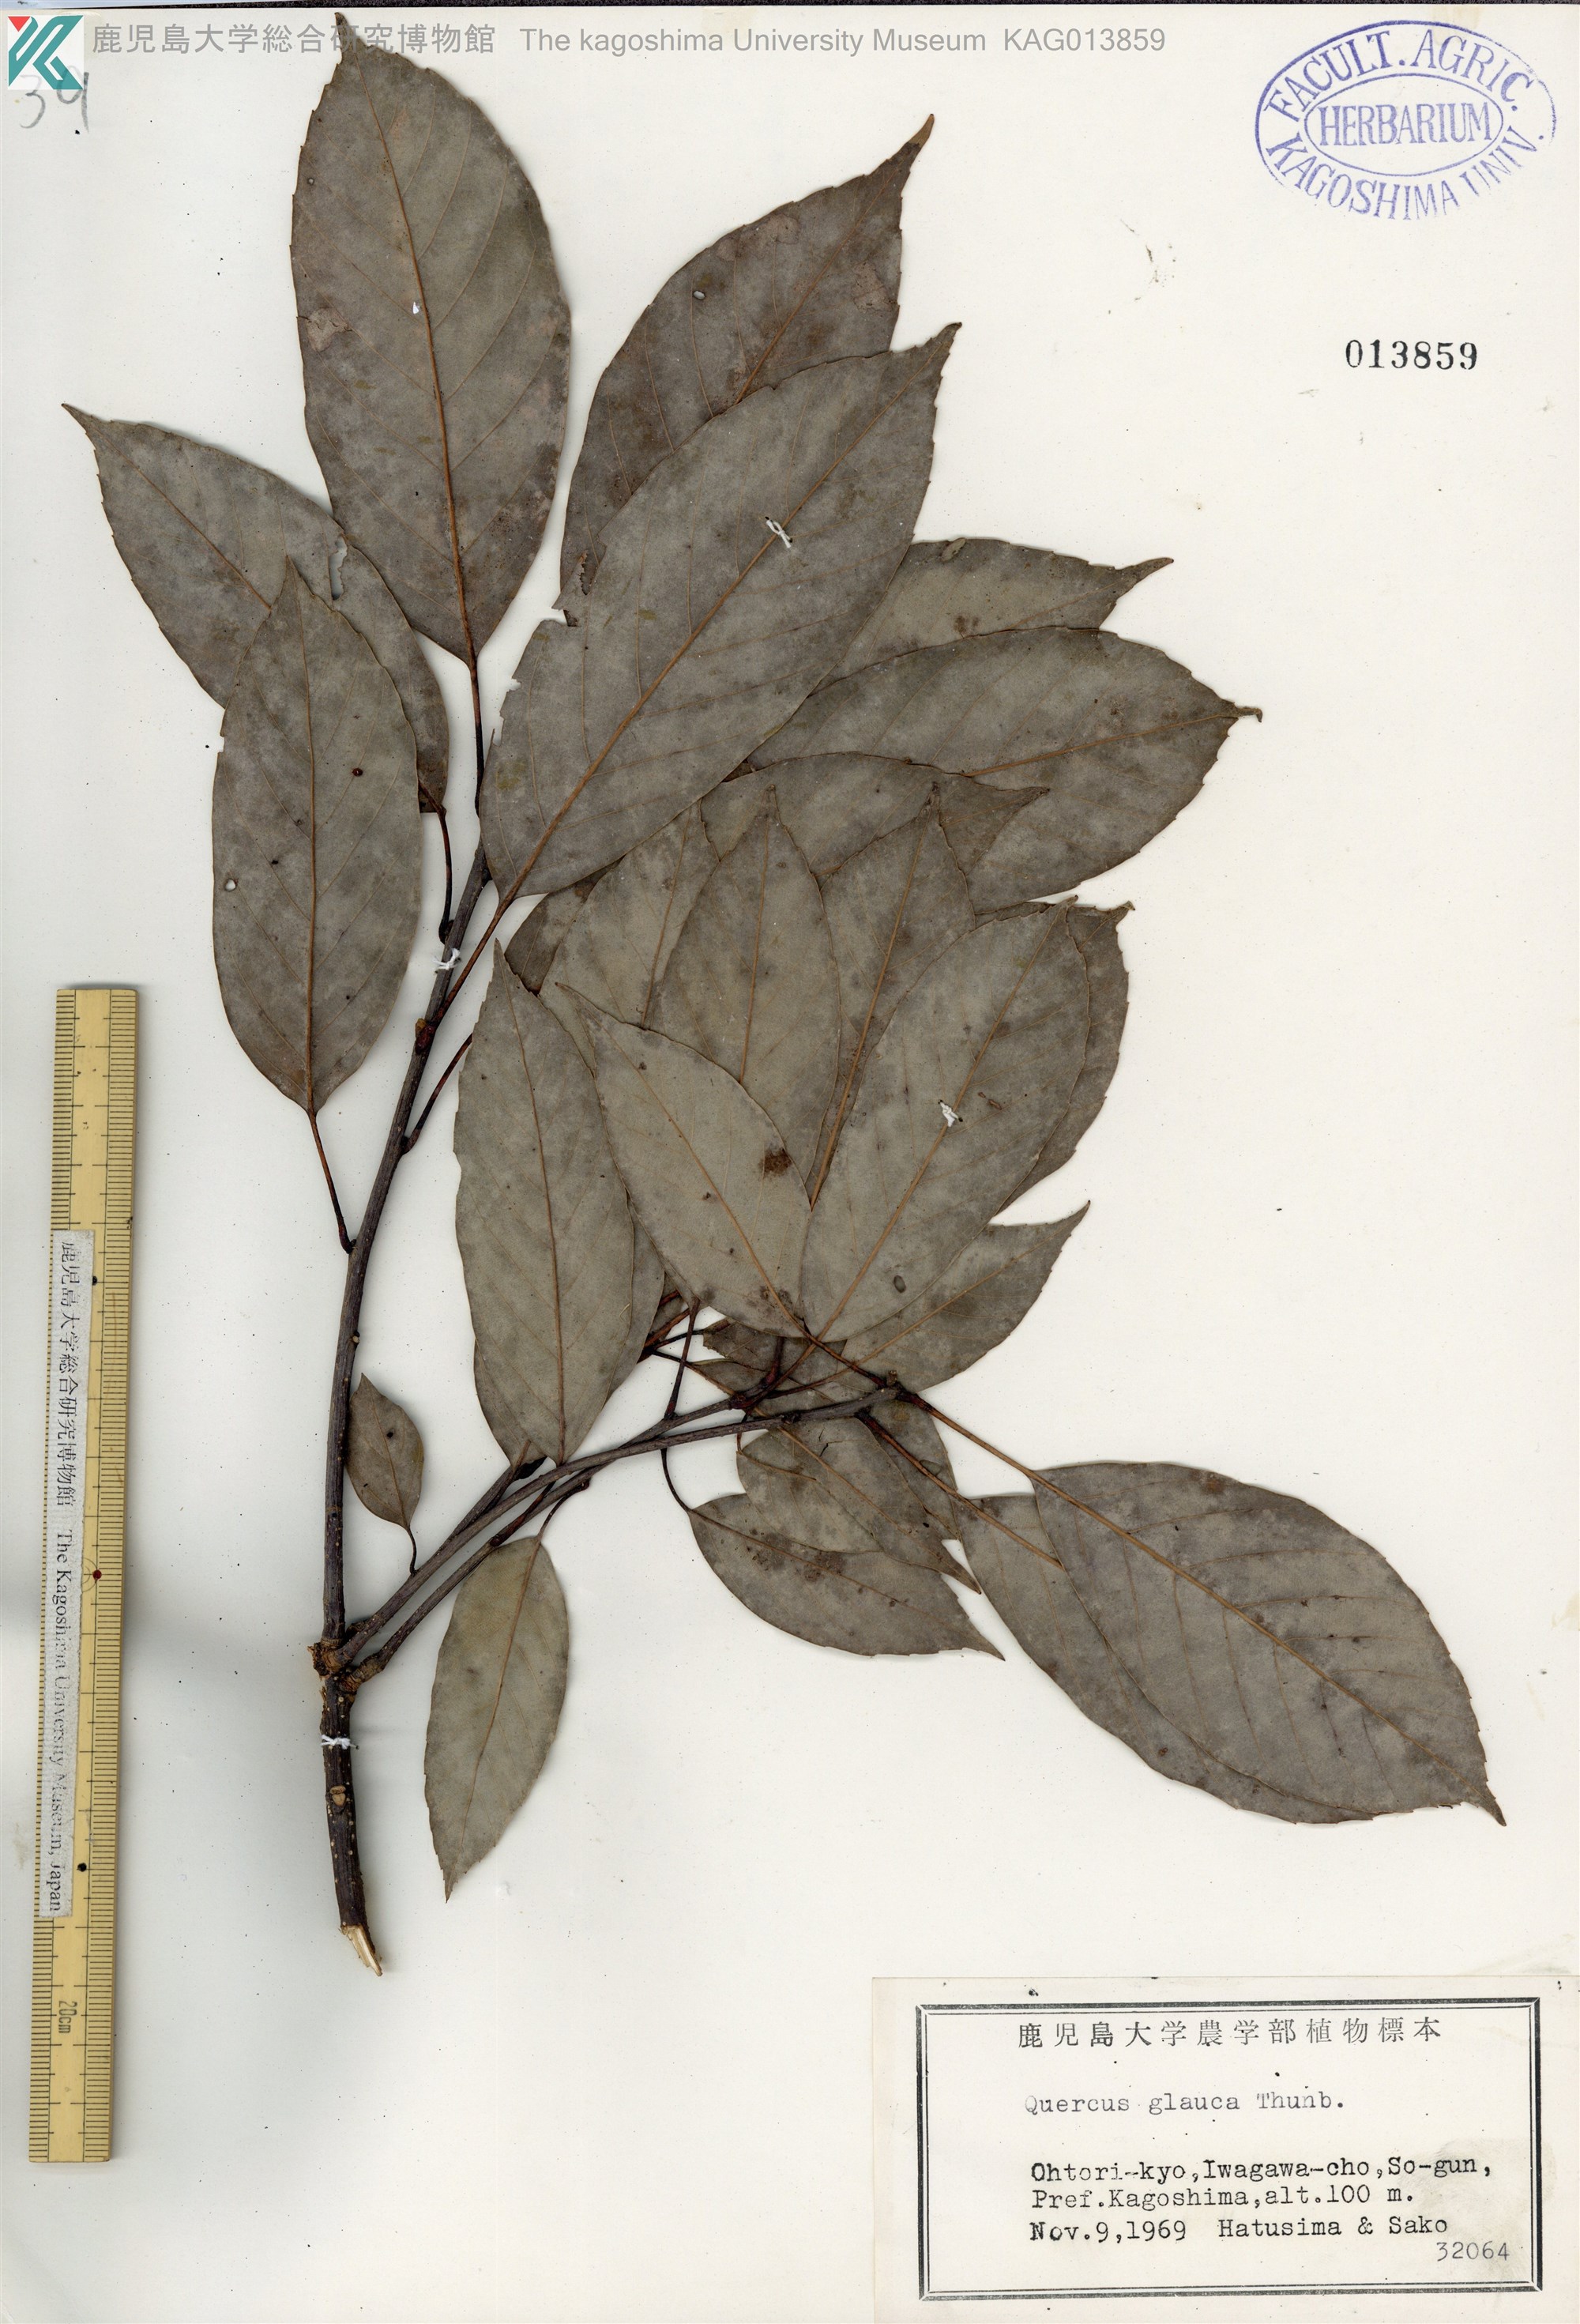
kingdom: Plantae
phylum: Tracheophyta
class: Magnoliopsida
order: Fagales
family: Fagaceae
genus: Quercus
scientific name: Quercus glauca
